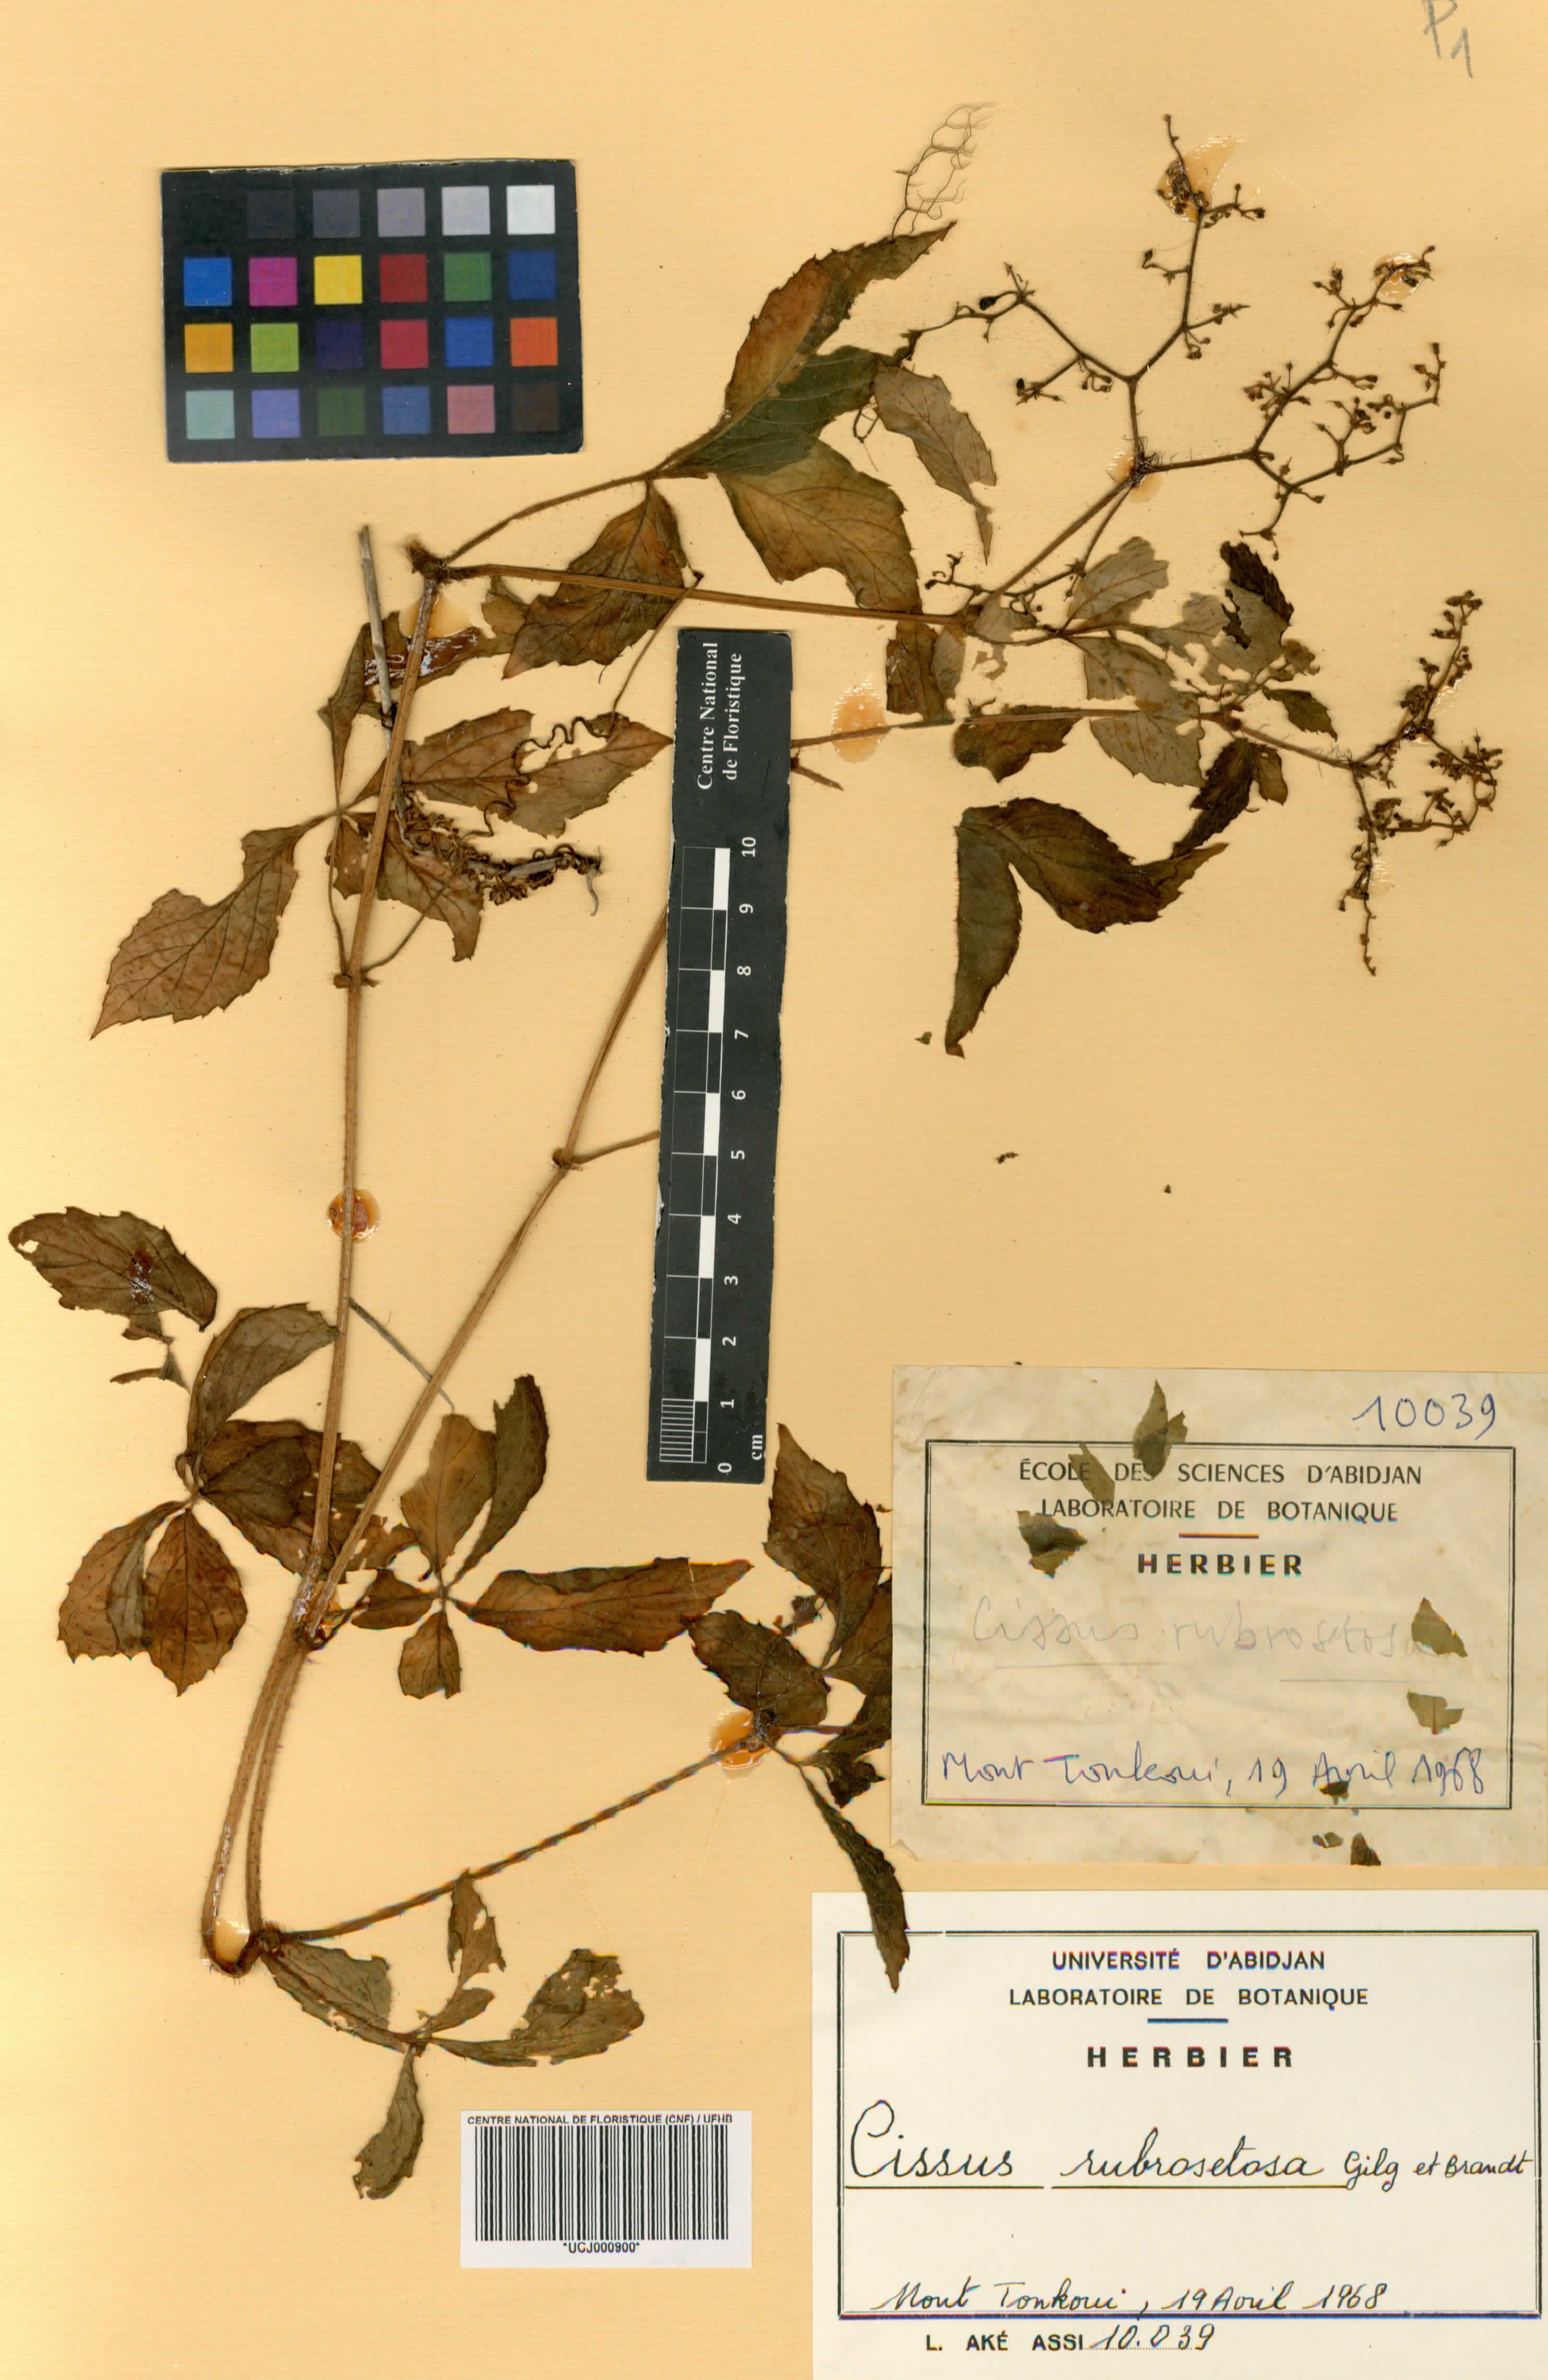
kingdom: Plantae
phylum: Tracheophyta
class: Magnoliopsida
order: Vitales
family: Vitaceae
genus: Cyphostemma
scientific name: Cyphostemma rubrosetosum
